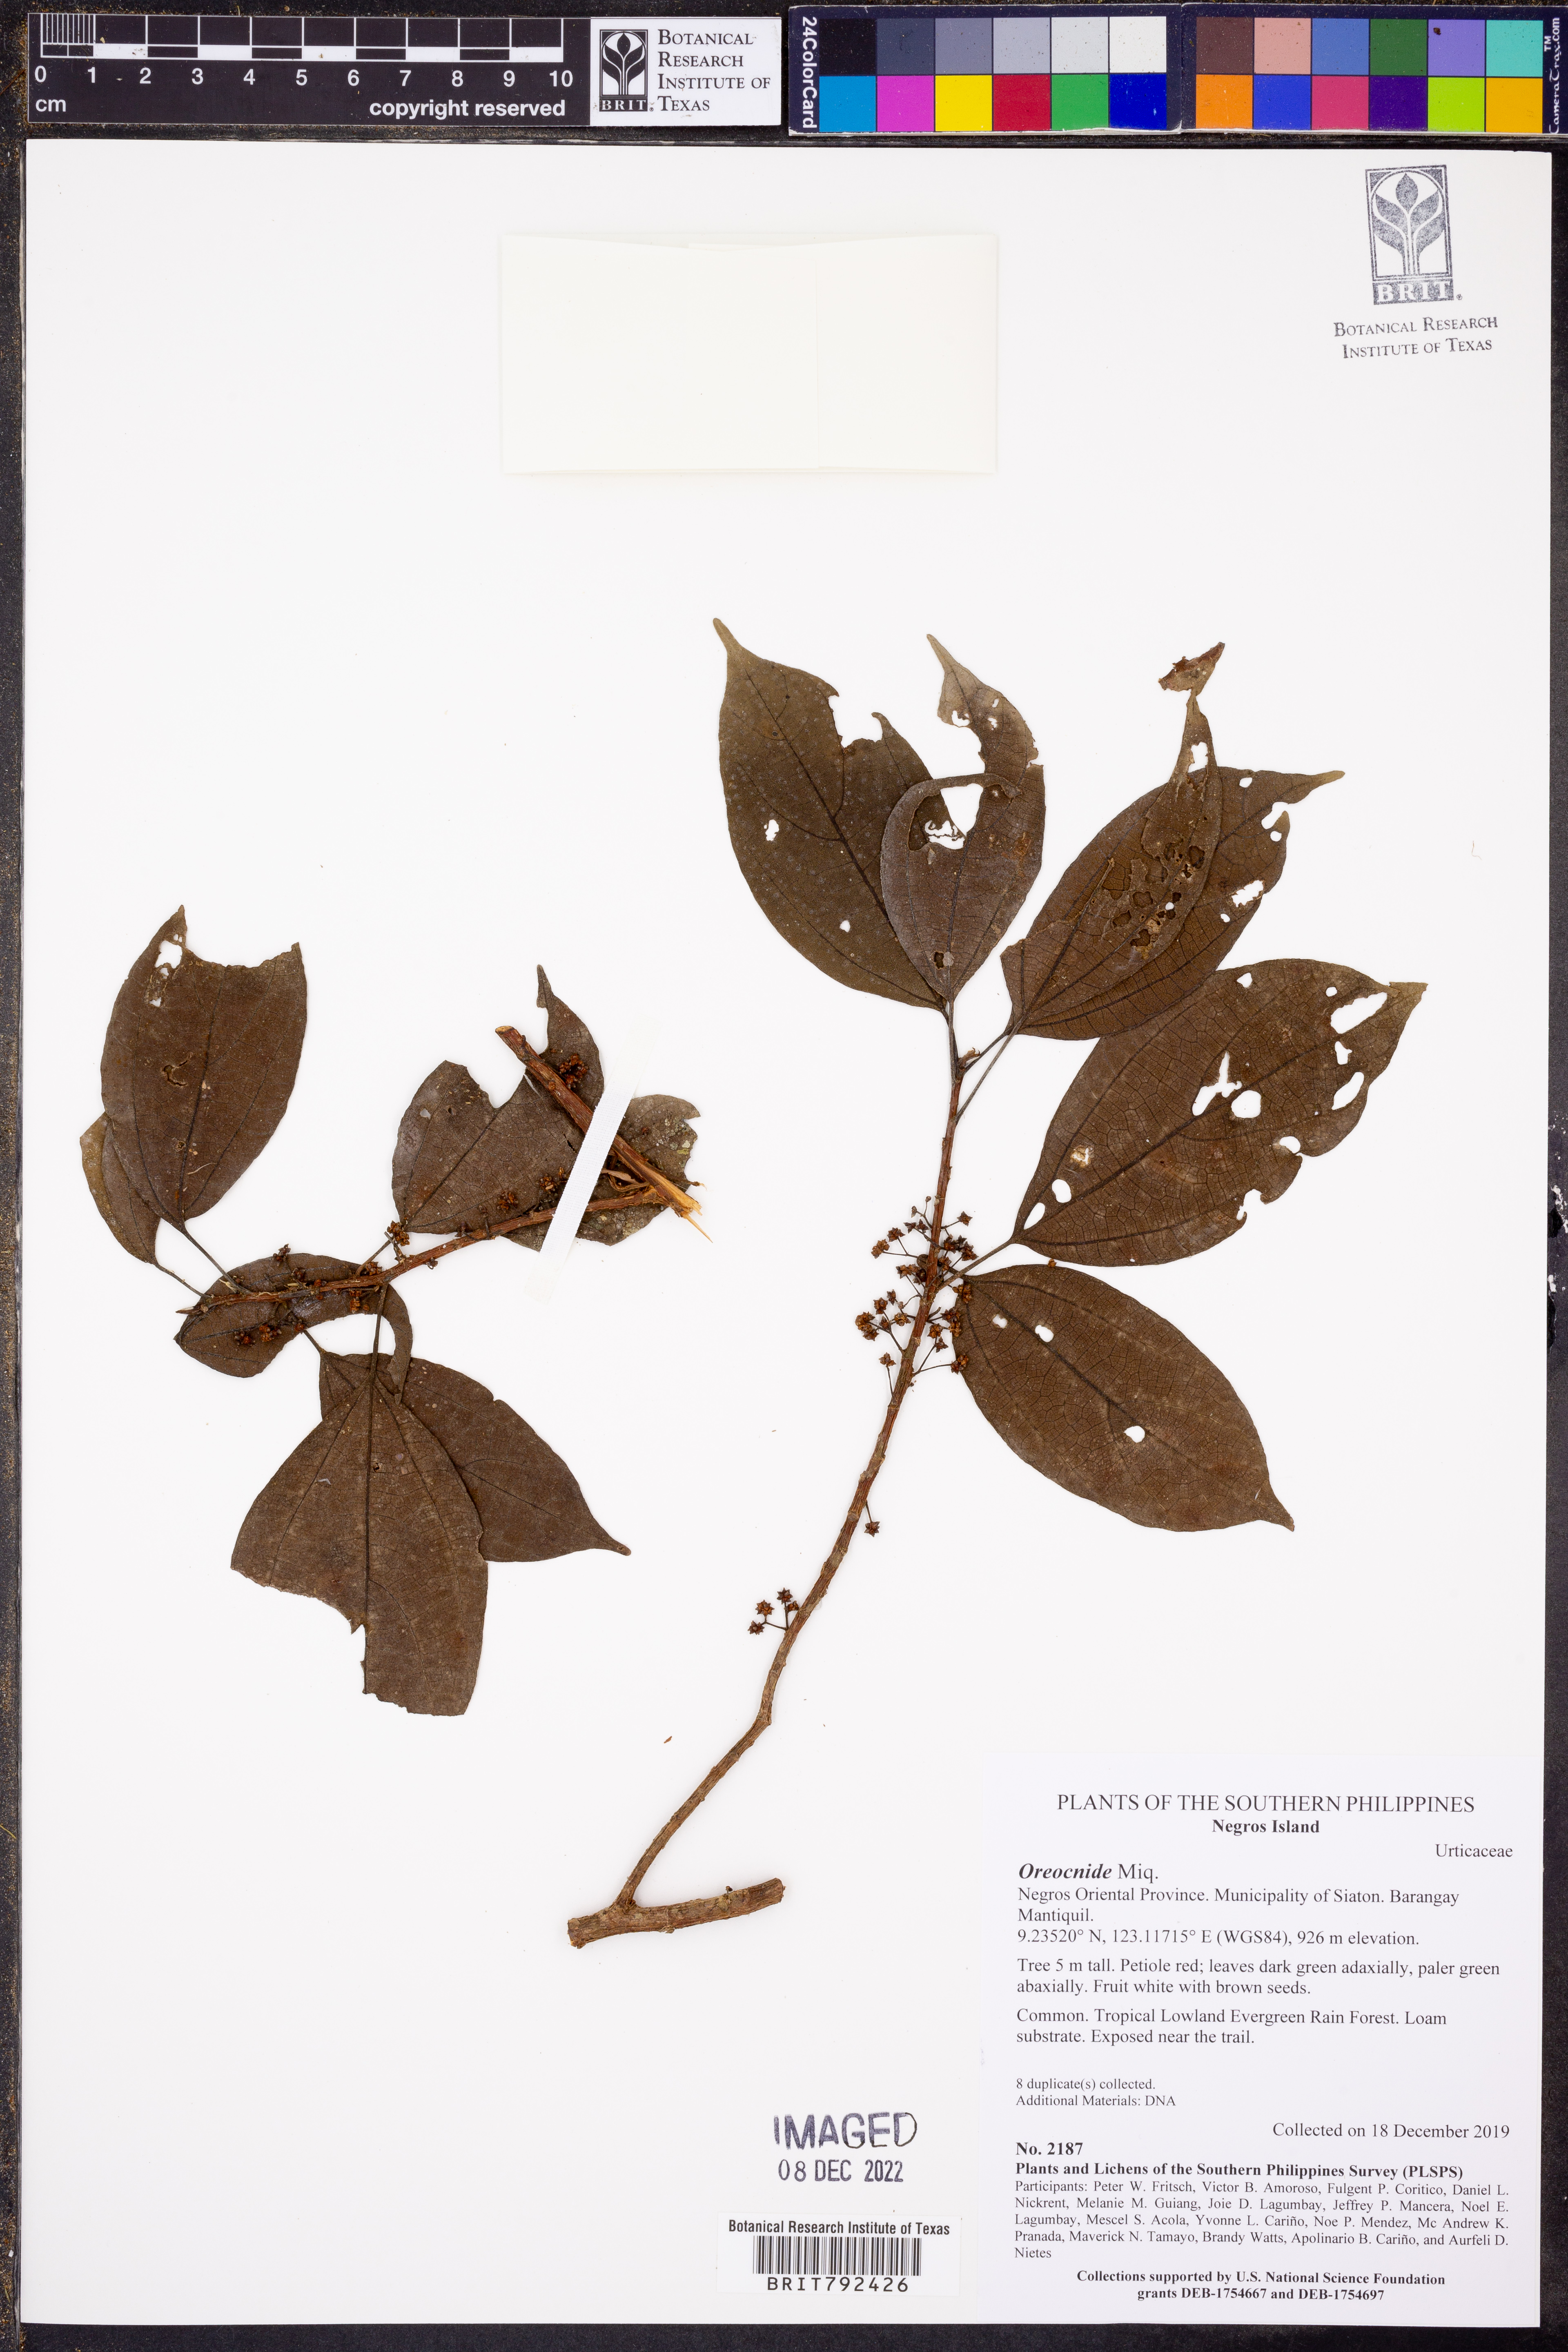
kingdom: Plantae
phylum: Tracheophyta
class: Magnoliopsida
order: Rosales
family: Urticaceae
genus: Oreocnide
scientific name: Oreocnide
